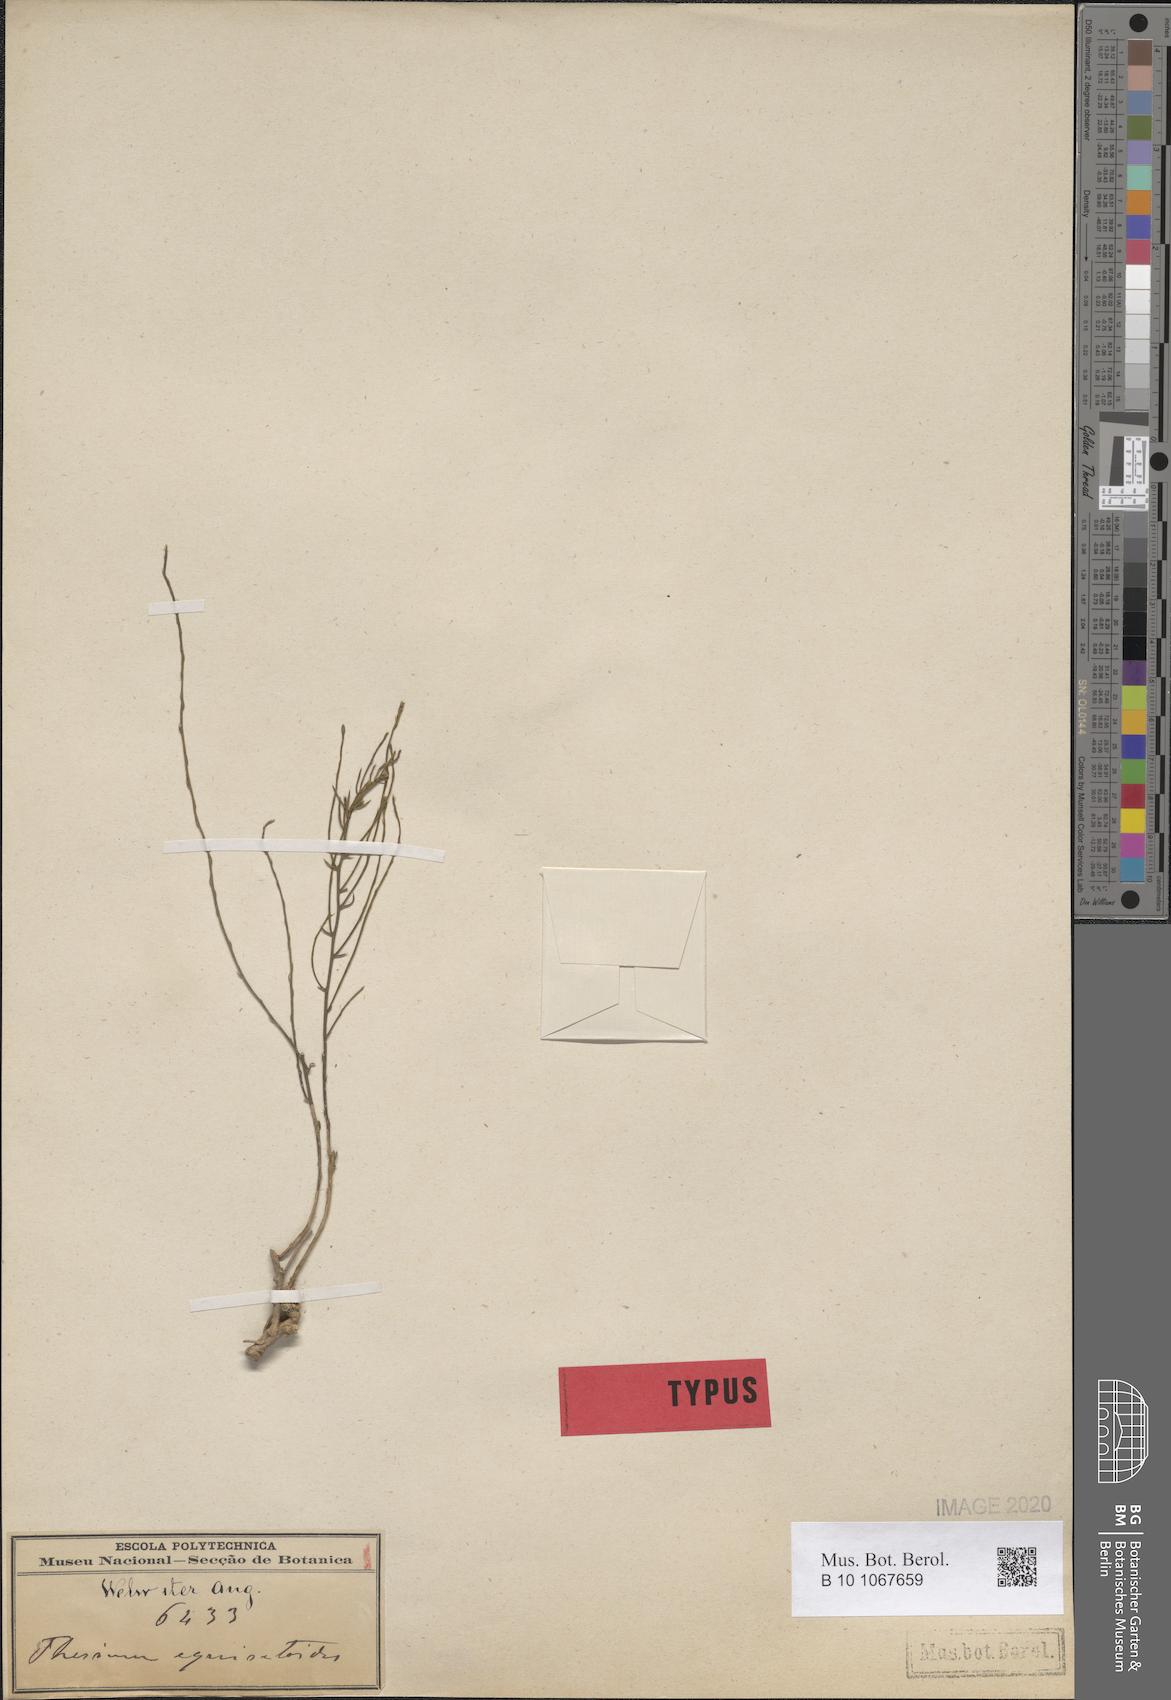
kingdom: Plantae
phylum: Tracheophyta
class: Magnoliopsida
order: Santalales
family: Thesiaceae
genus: Thesium
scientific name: Thesium equisetoides
